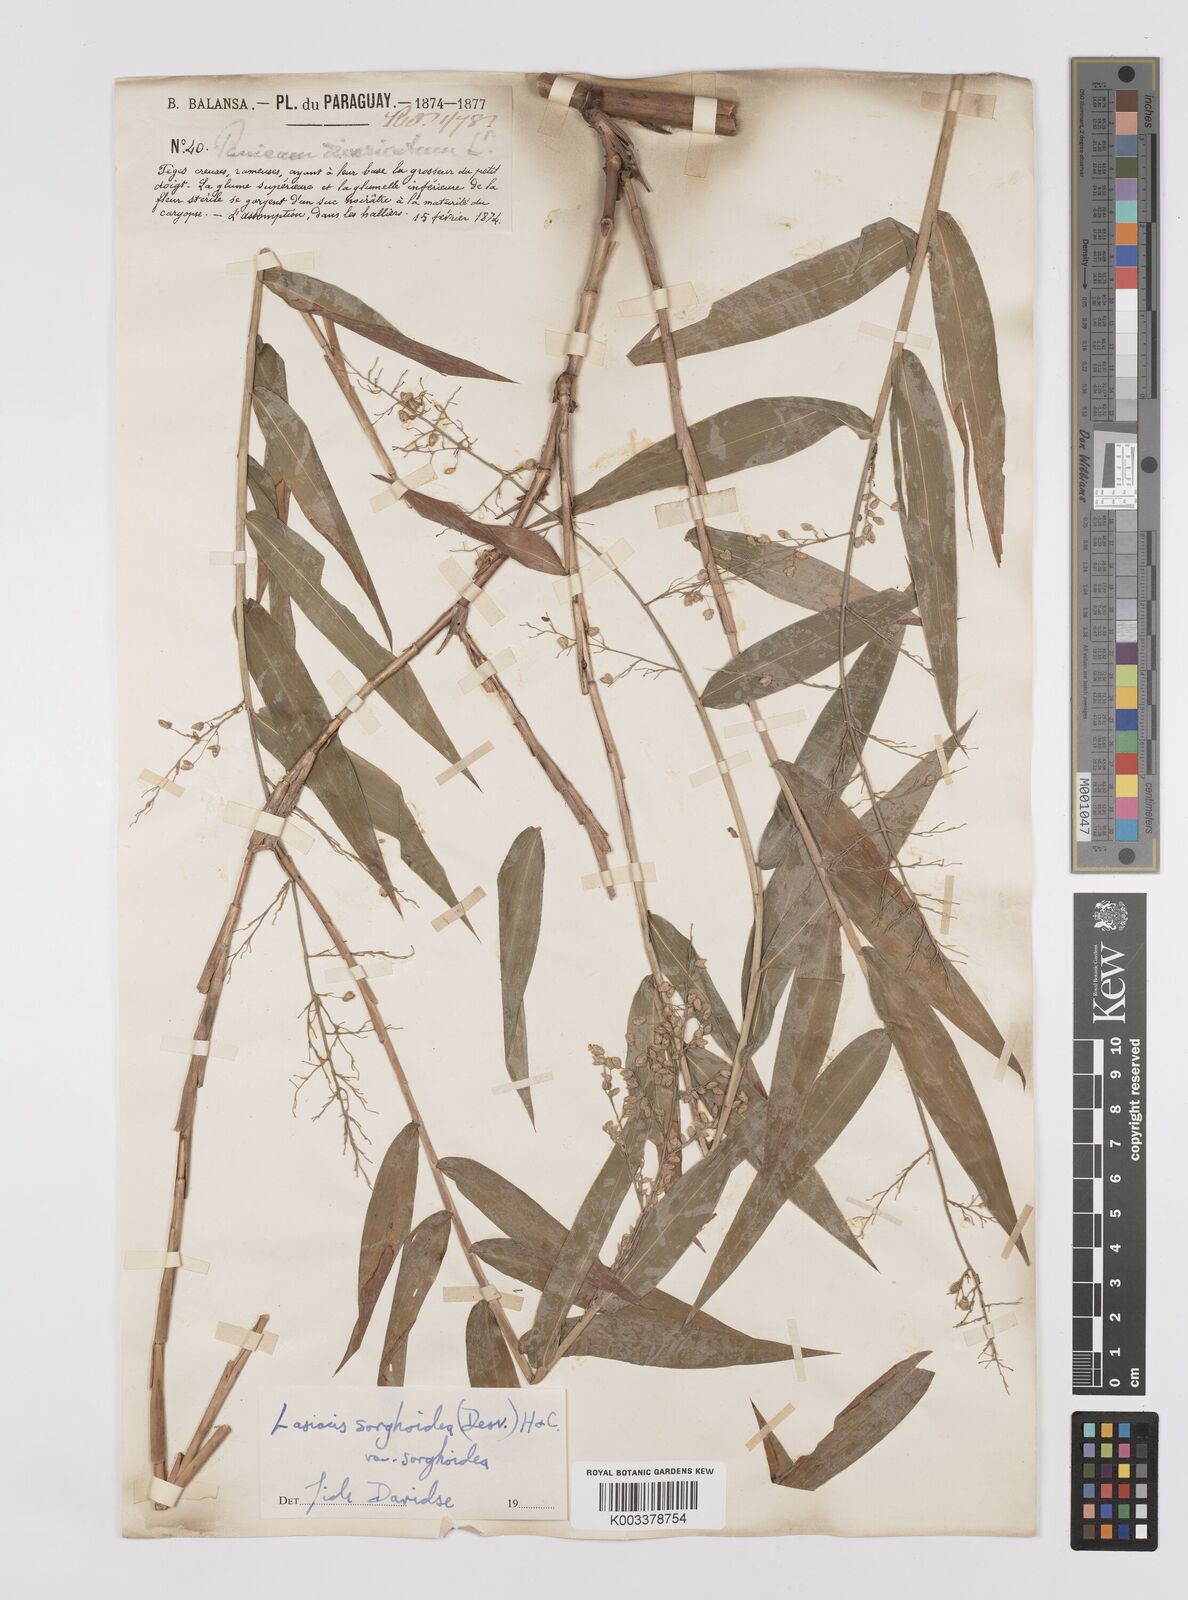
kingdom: Plantae
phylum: Tracheophyta
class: Liliopsida
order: Poales
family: Poaceae
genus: Lasiacis
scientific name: Lasiacis maculata
